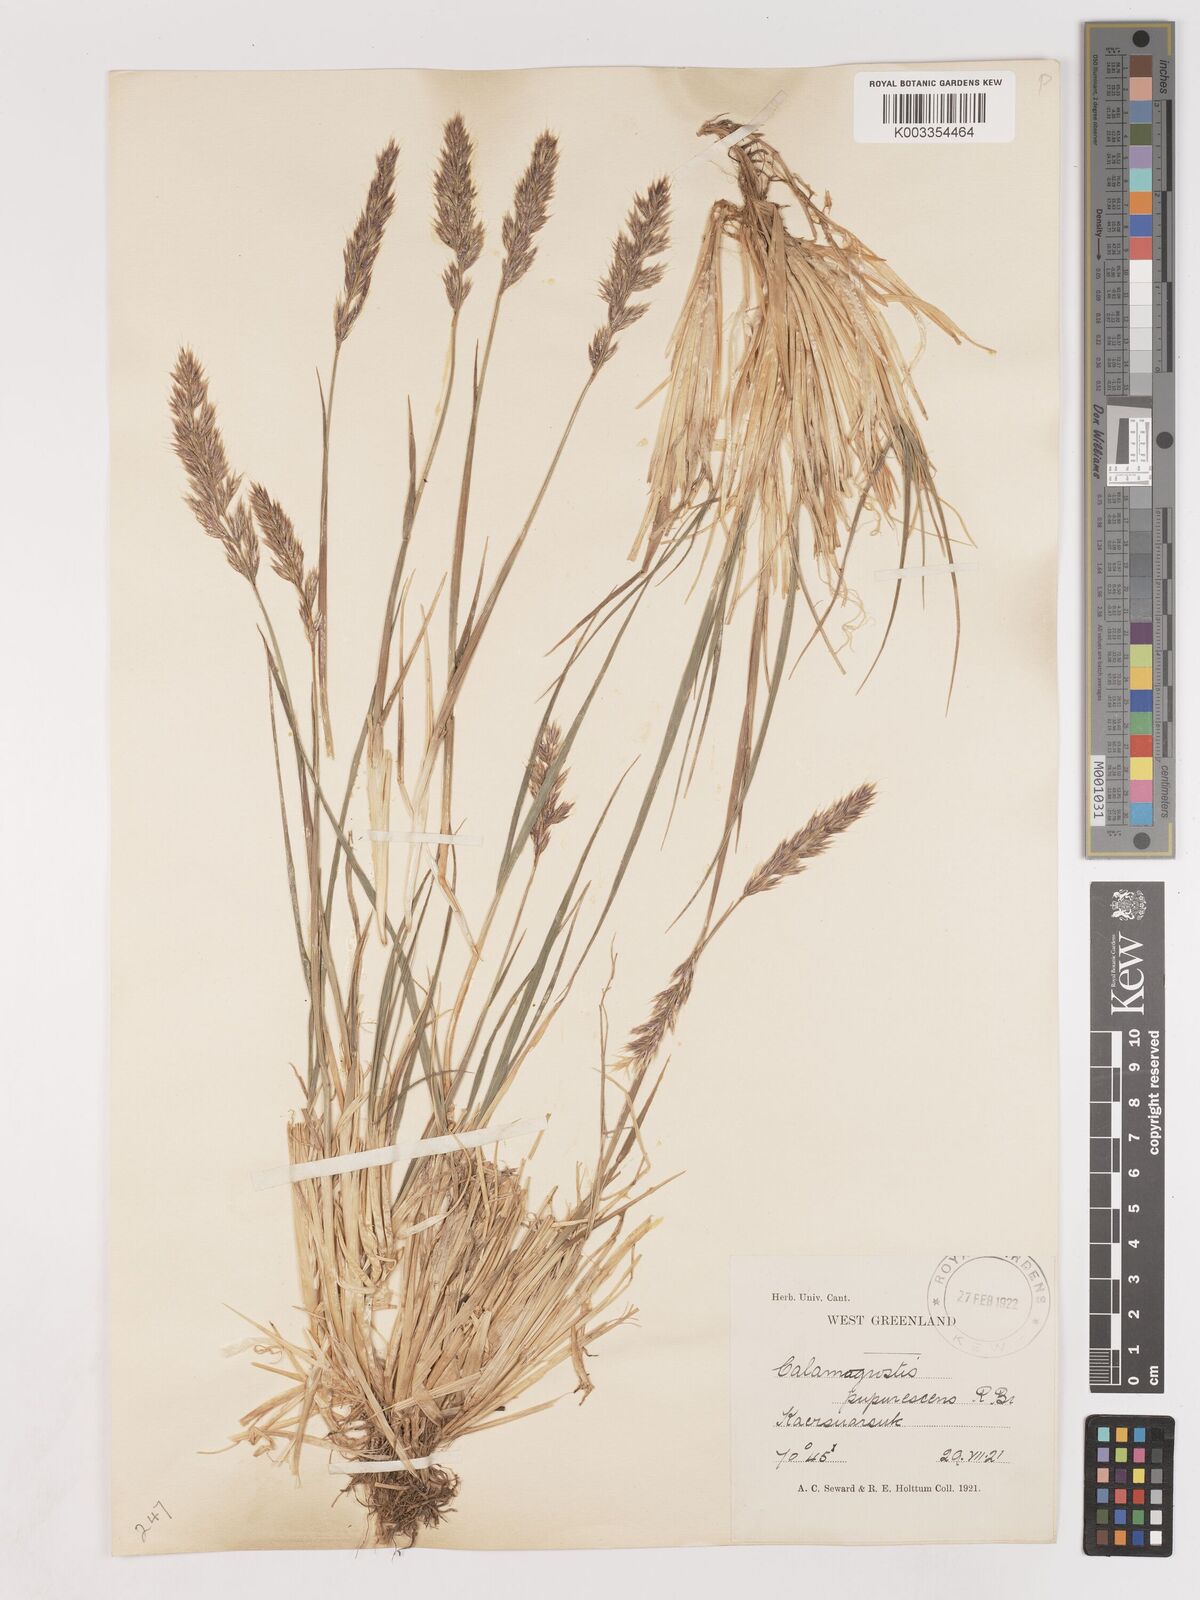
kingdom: Plantae
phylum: Tracheophyta
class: Liliopsida
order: Poales
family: Poaceae
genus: Calamagrostis
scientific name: Calamagrostis purpurascens
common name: Purple reedgrass
